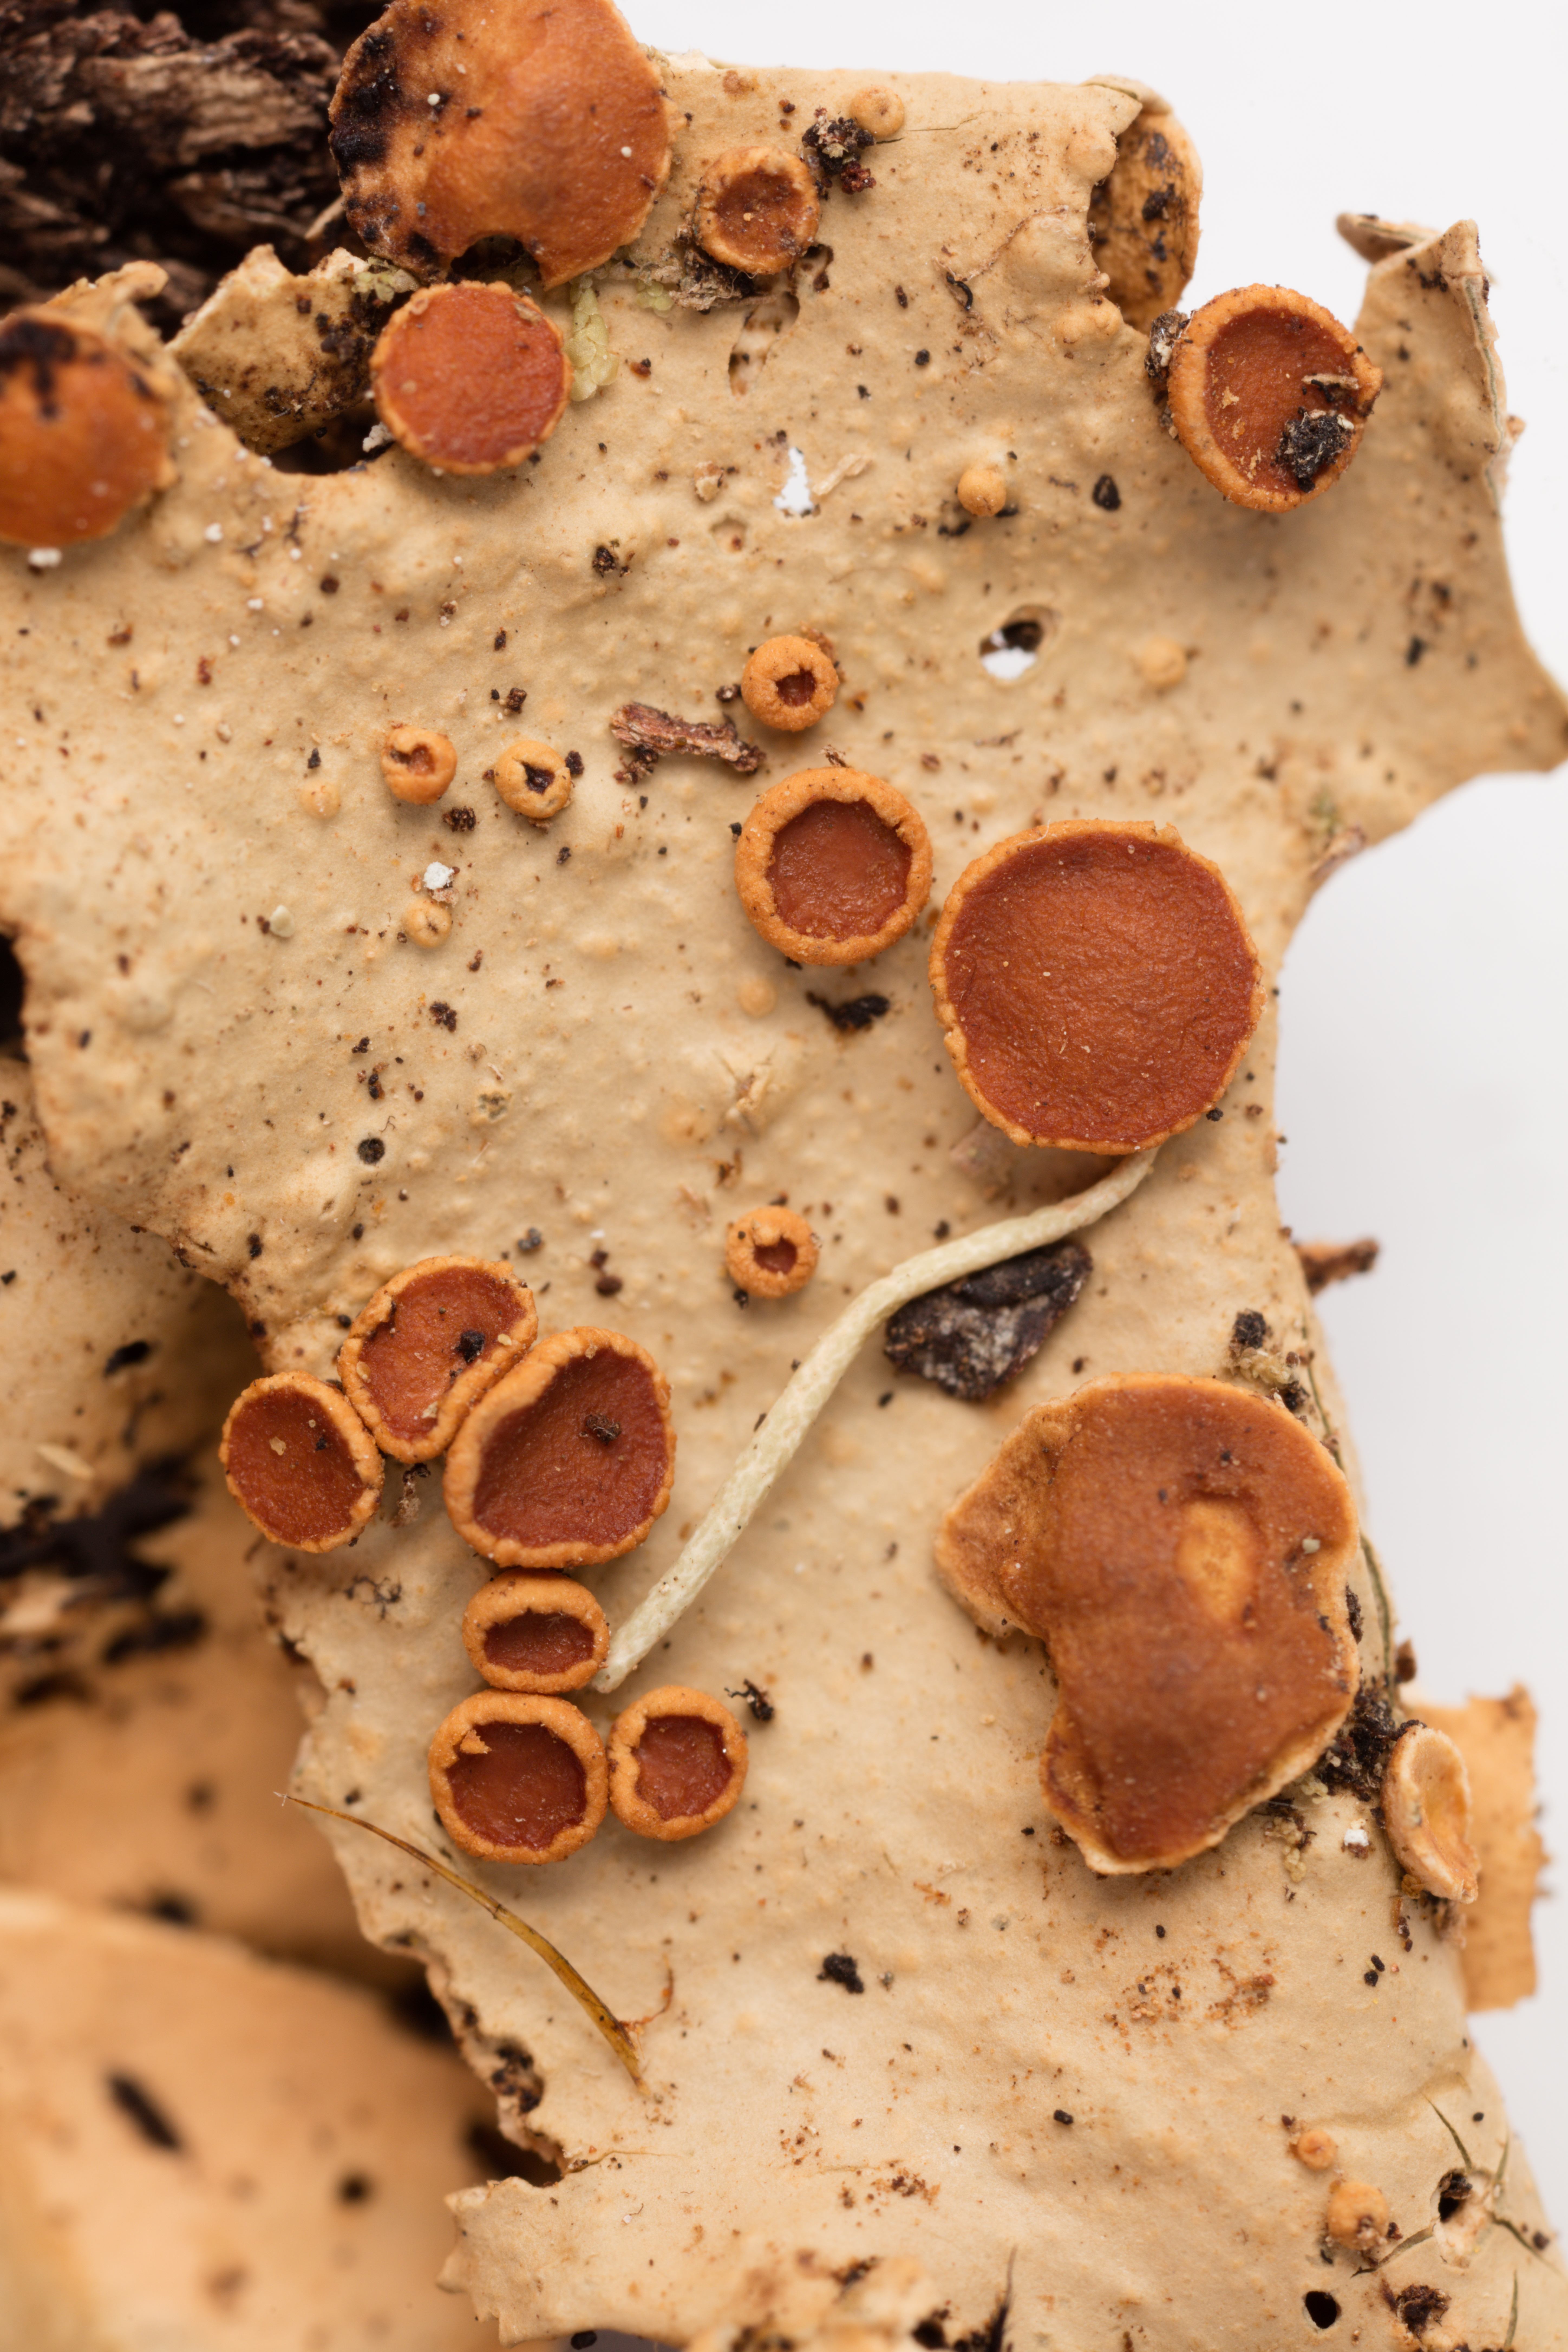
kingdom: Fungi
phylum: Ascomycota
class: Lecanoromycetes
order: Peltigerales
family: Lobariaceae
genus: Sticta
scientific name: Sticta subcaperata
